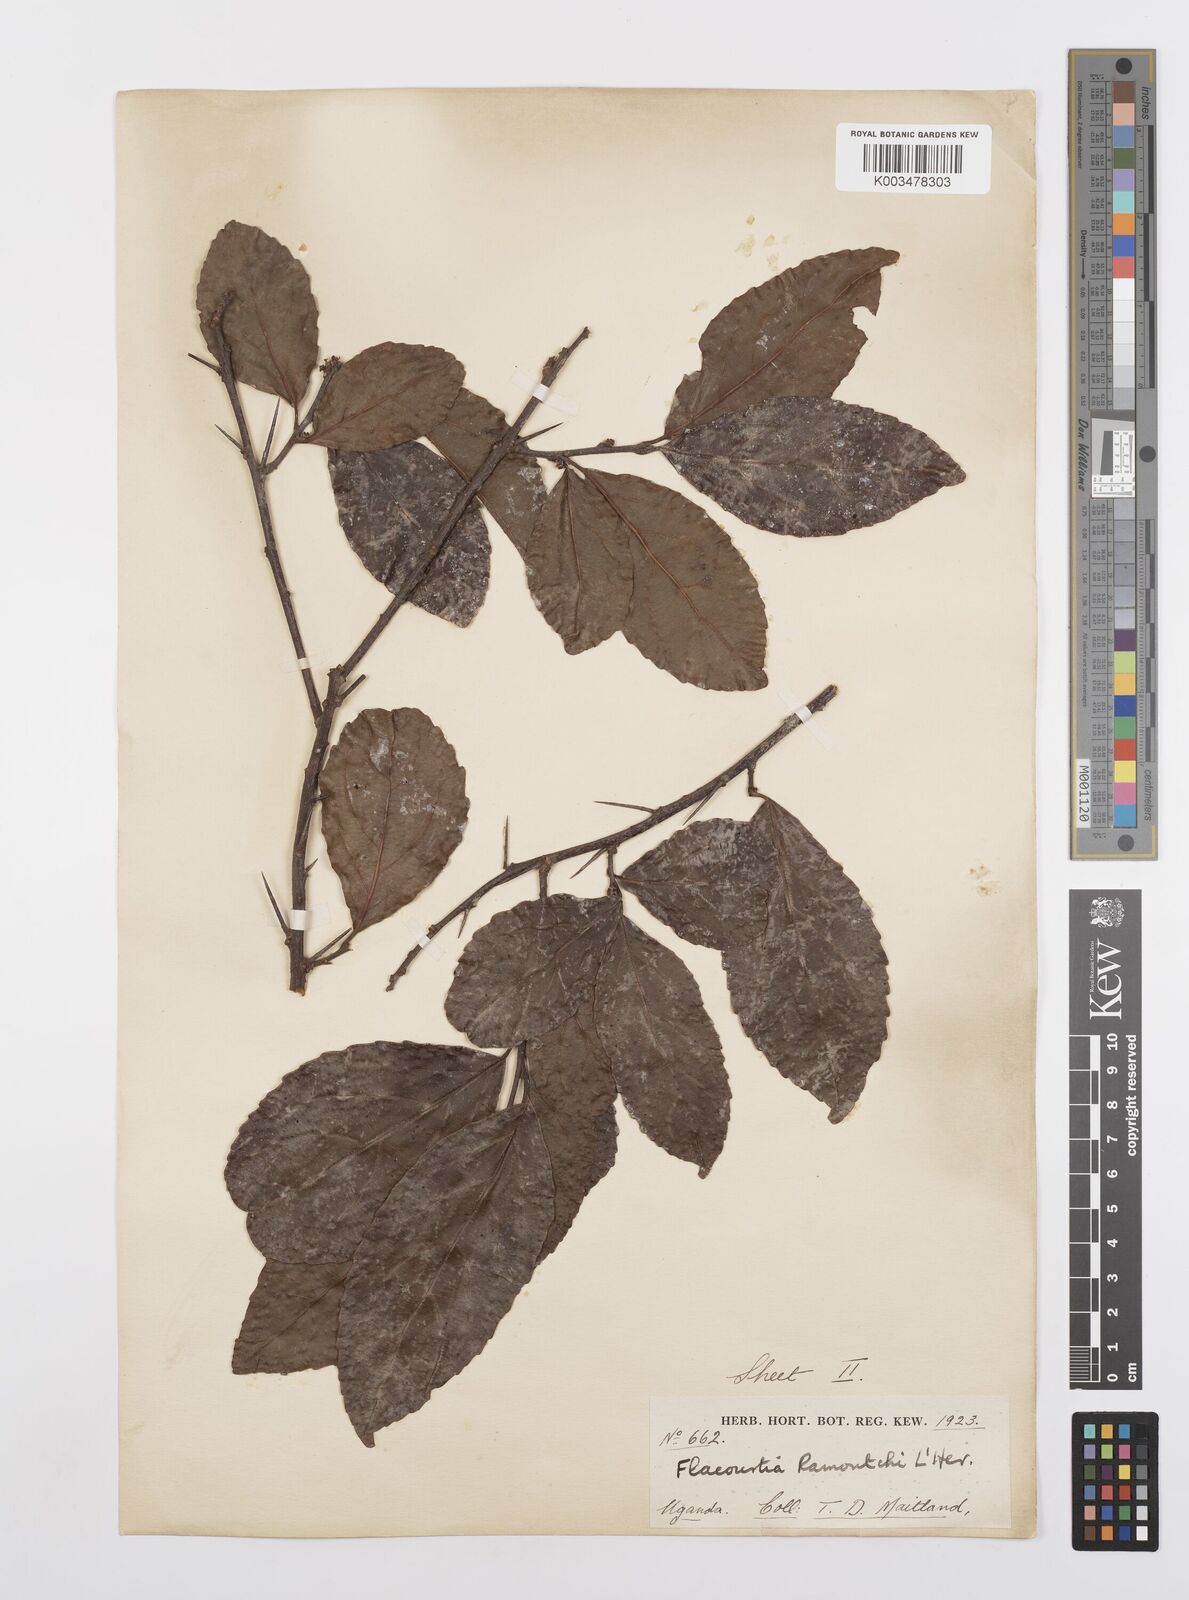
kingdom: Plantae
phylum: Tracheophyta
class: Magnoliopsida
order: Malpighiales
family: Salicaceae
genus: Scolopia
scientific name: Scolopia rhamniphylla
